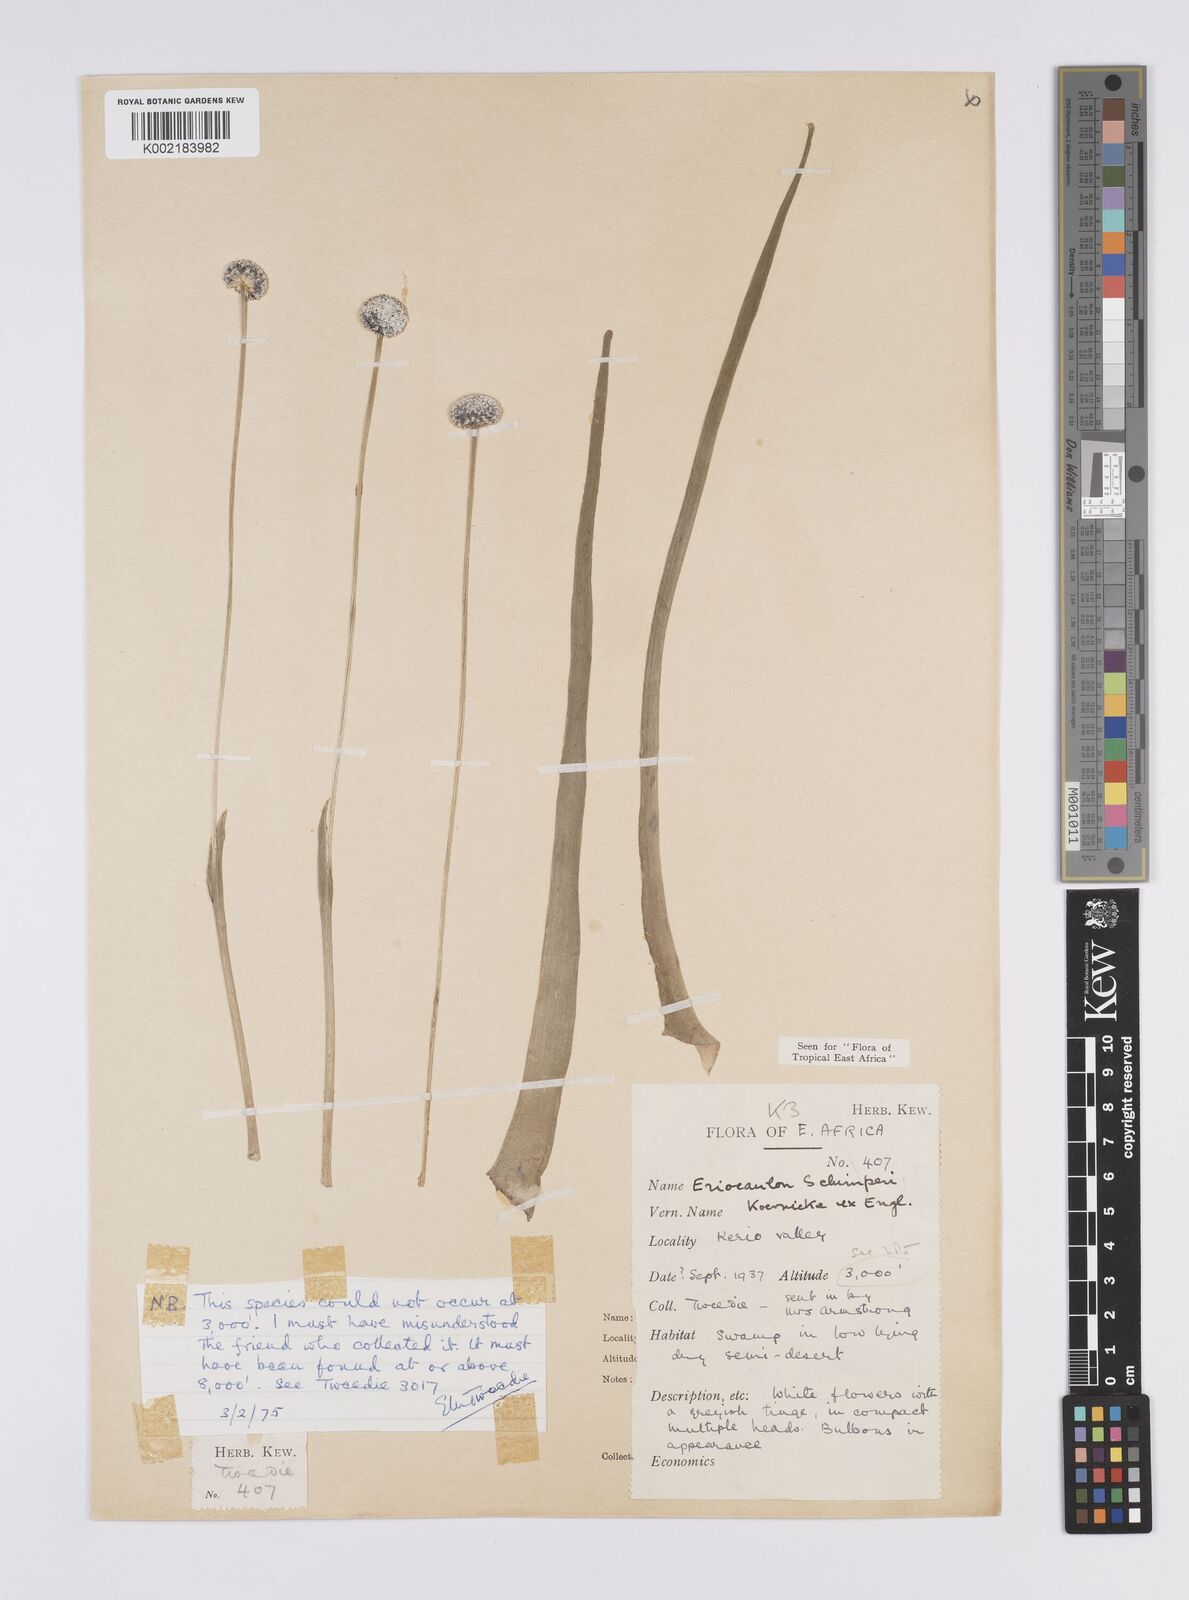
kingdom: Plantae
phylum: Tracheophyta
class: Liliopsida
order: Poales
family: Eriocaulaceae
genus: Eriocaulon
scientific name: Eriocaulon schimperi
